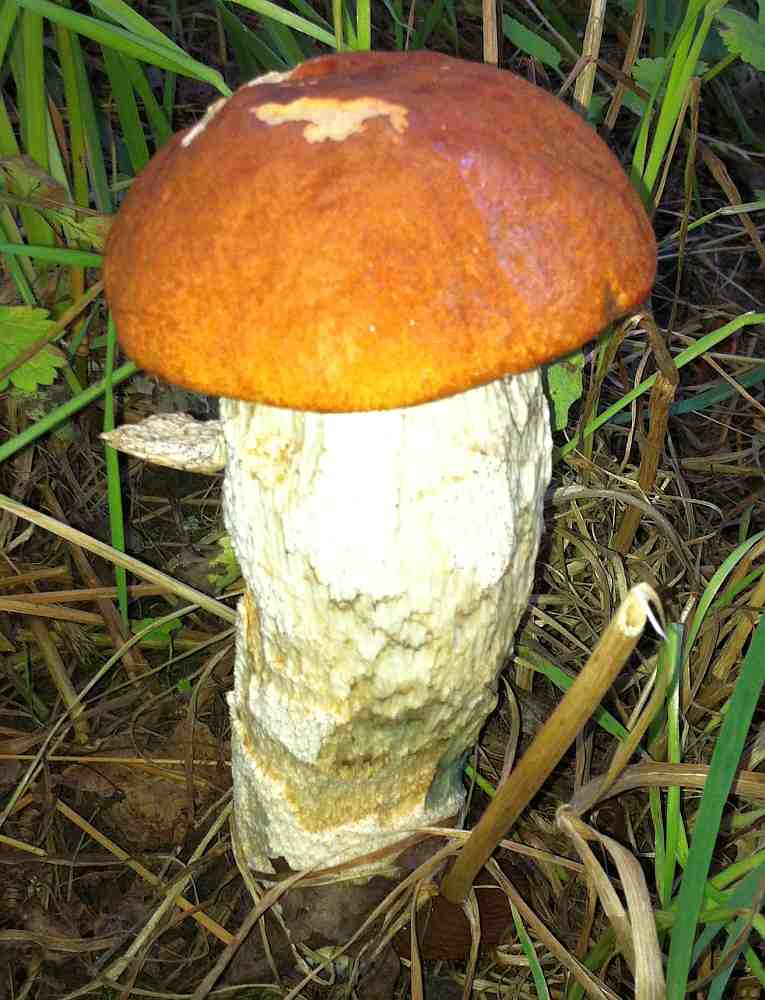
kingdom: Fungi
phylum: Basidiomycota
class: Agaricomycetes
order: Boletales
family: Boletaceae
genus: Leccinum
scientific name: Leccinum albostipitatum
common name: aspe-skælrørhat
